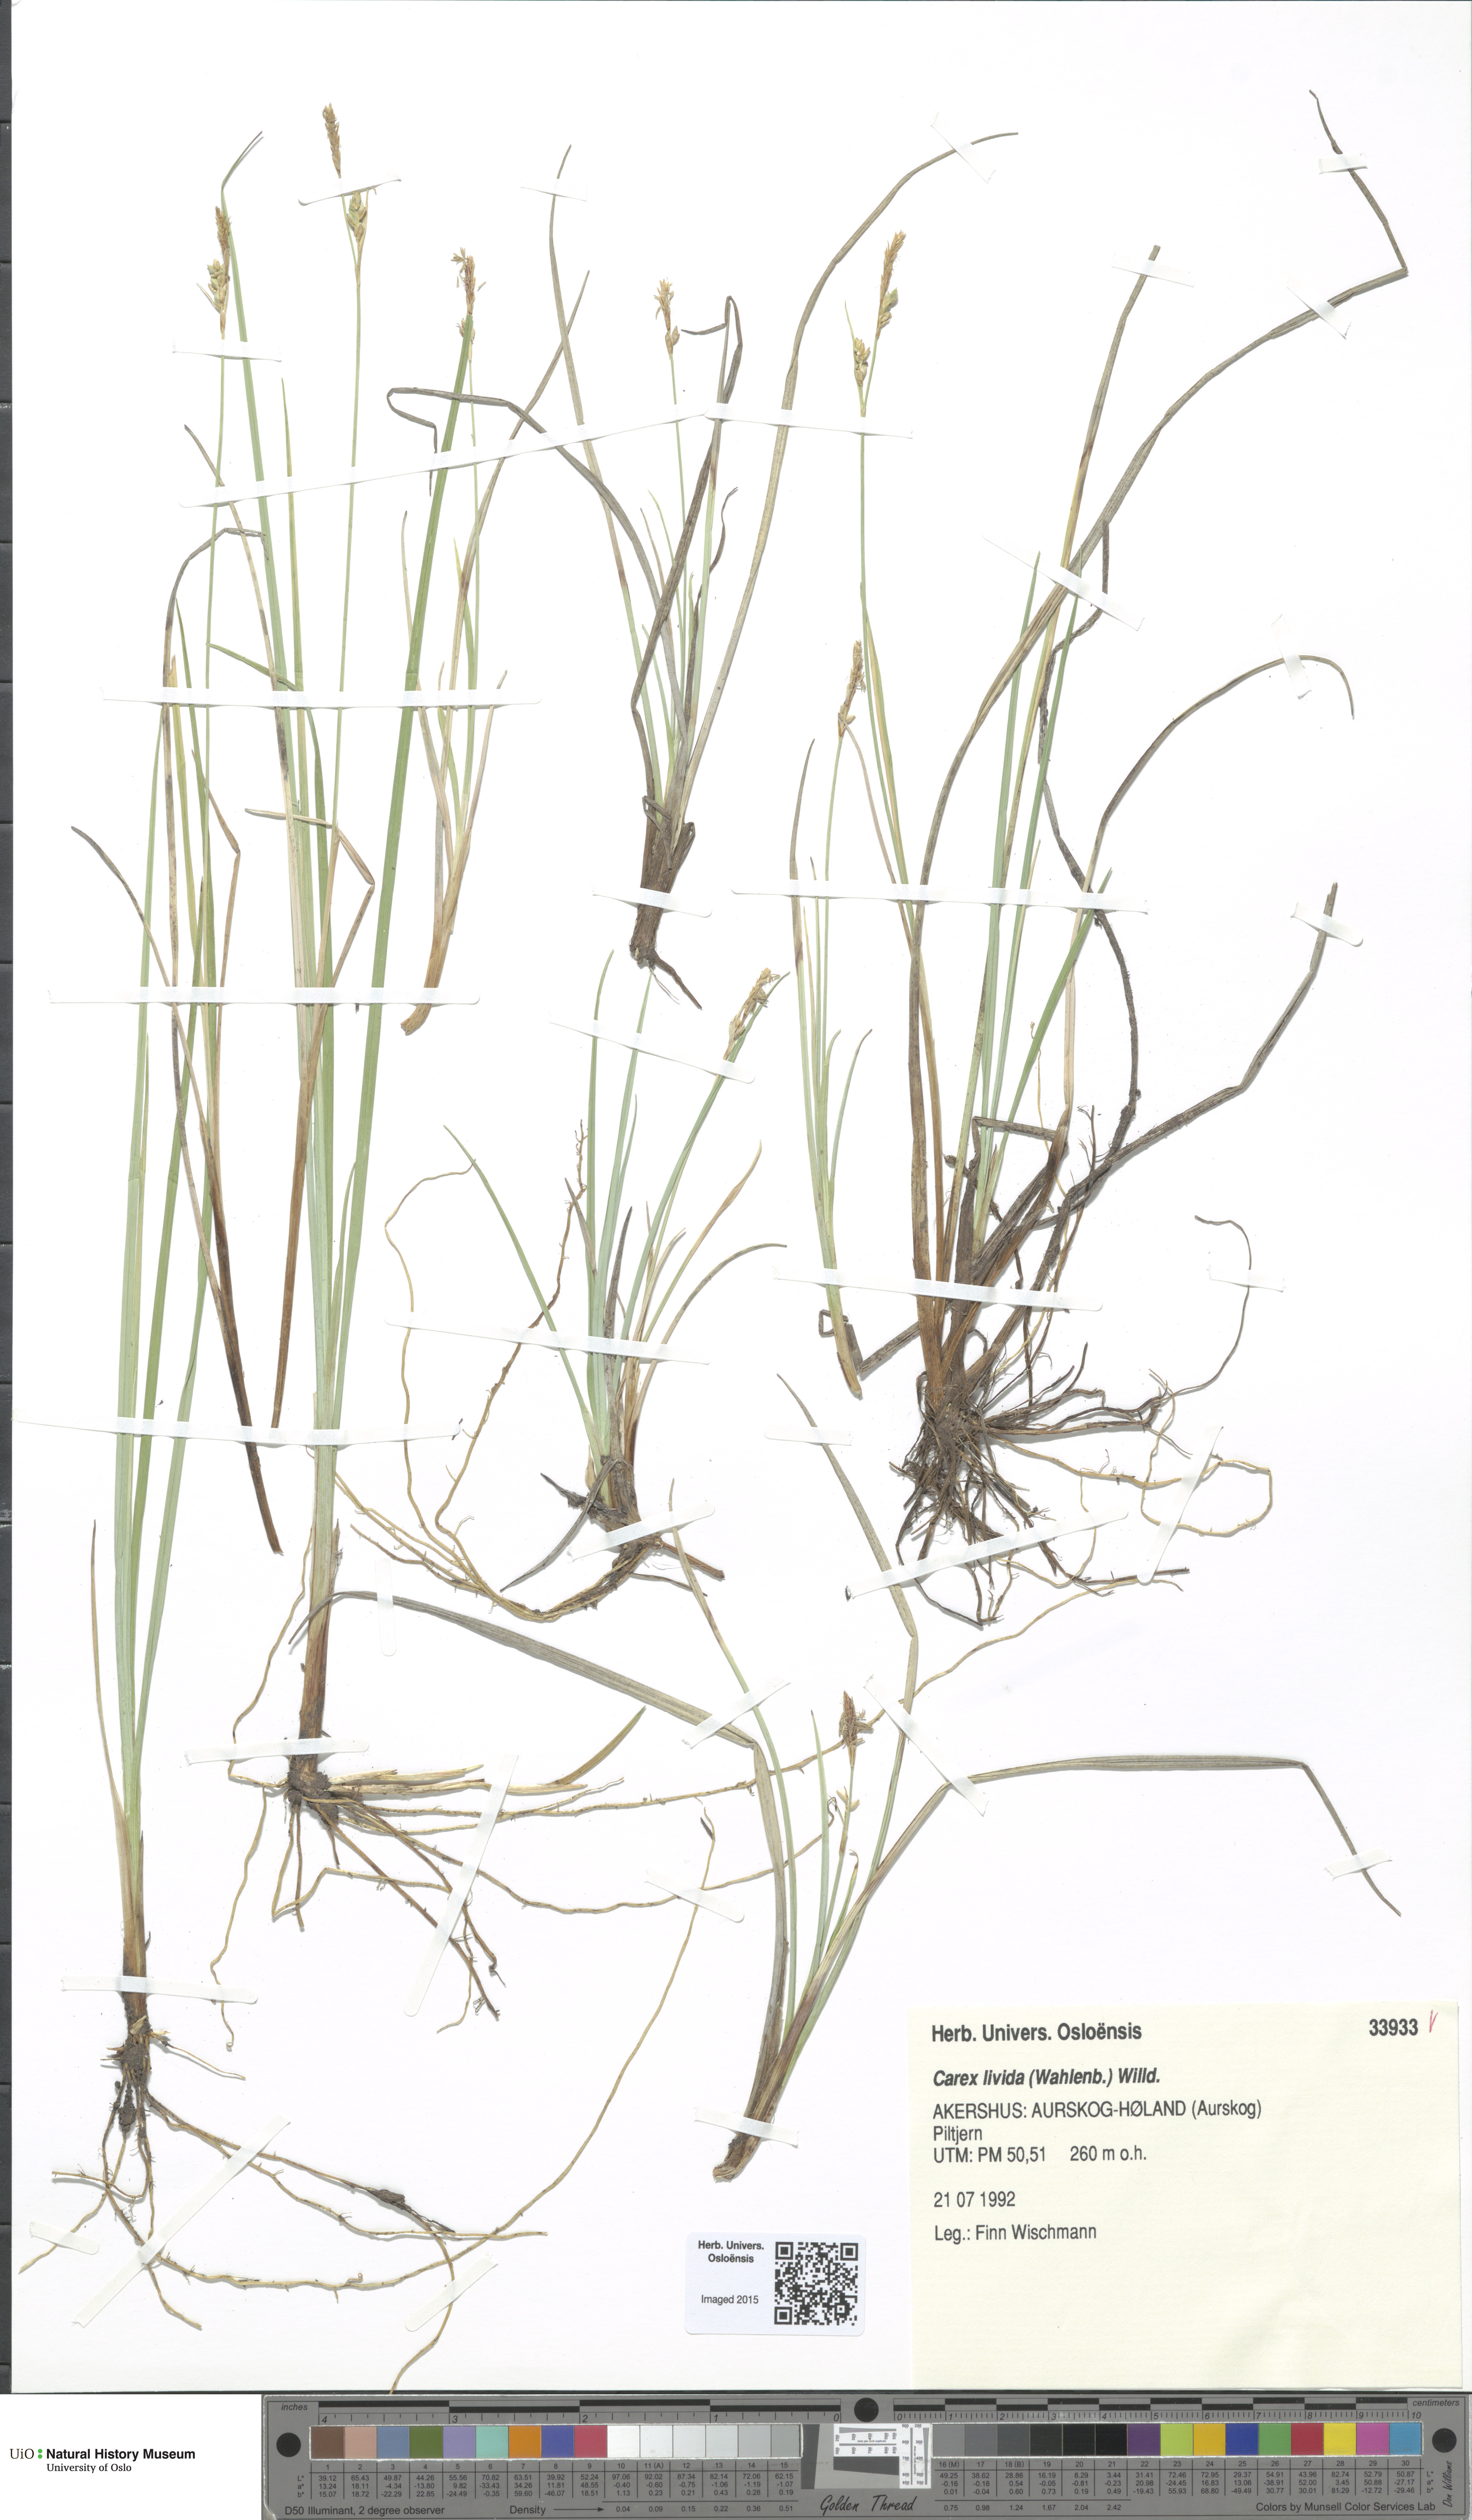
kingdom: Plantae
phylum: Tracheophyta
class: Liliopsida
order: Poales
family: Cyperaceae
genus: Carex
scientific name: Carex livida
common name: Livid sedge
